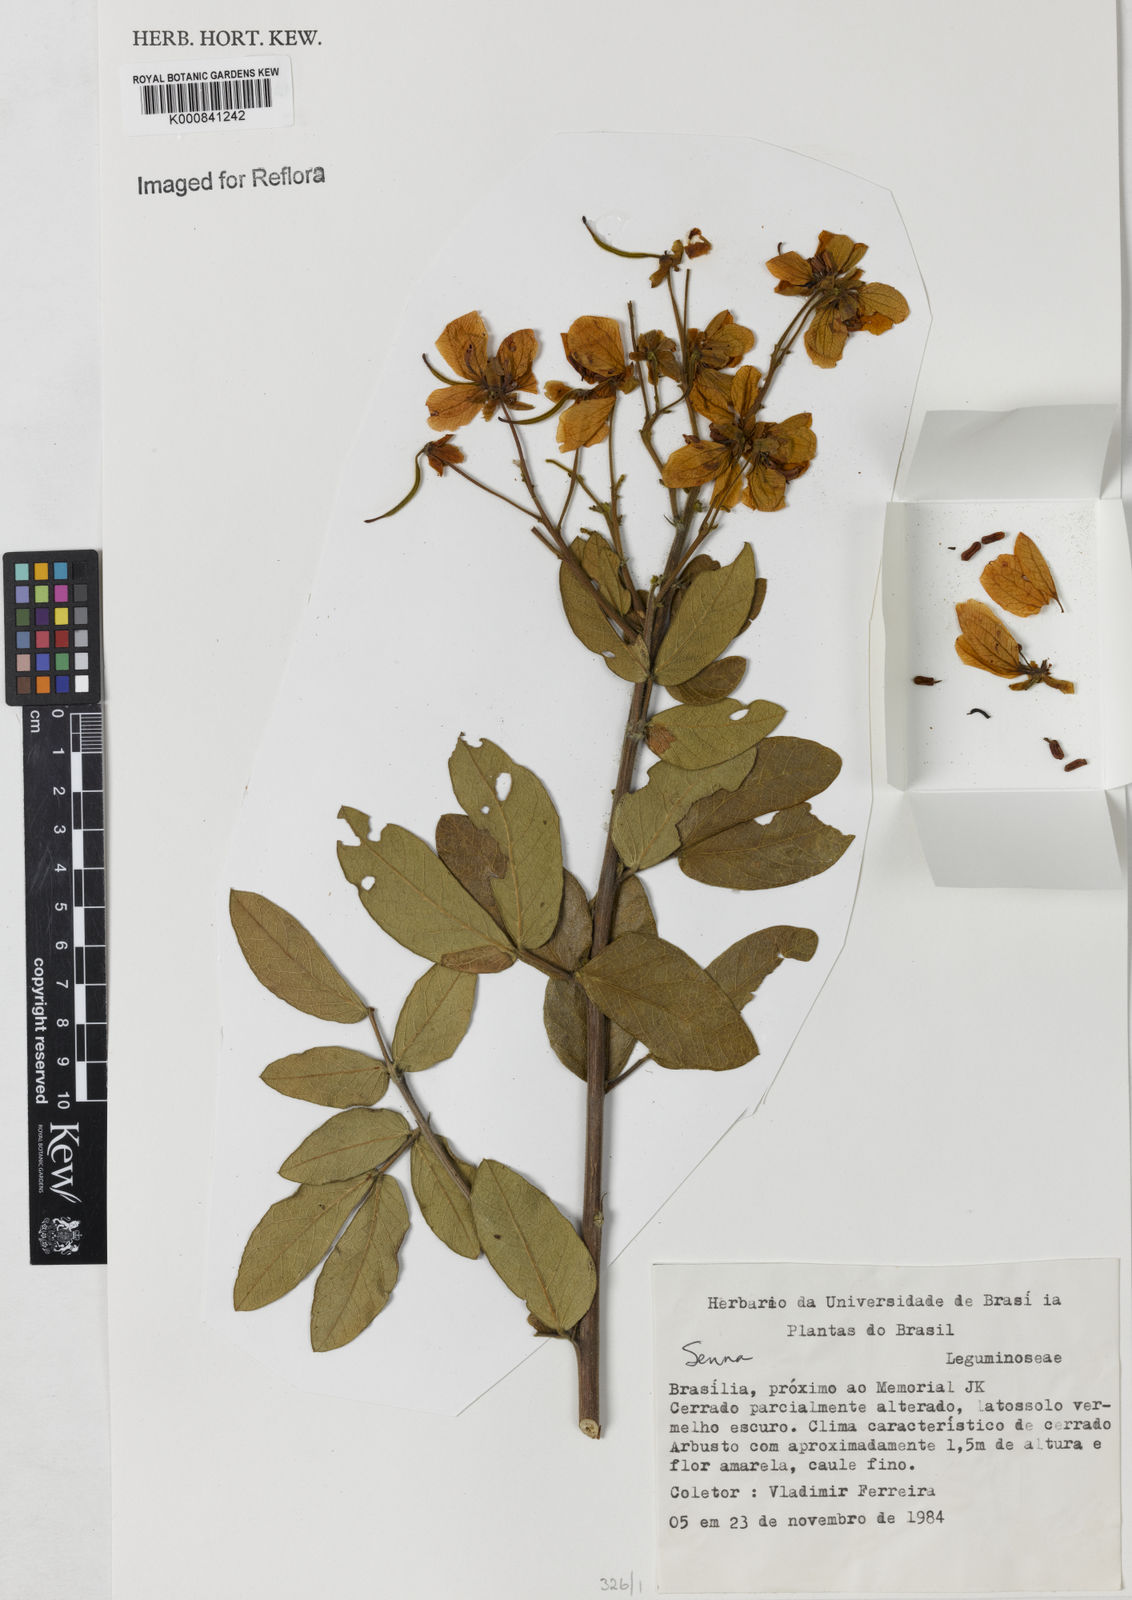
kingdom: Plantae
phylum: Tracheophyta
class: Magnoliopsida
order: Fabales
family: Fabaceae
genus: Senna
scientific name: Senna rugosa
